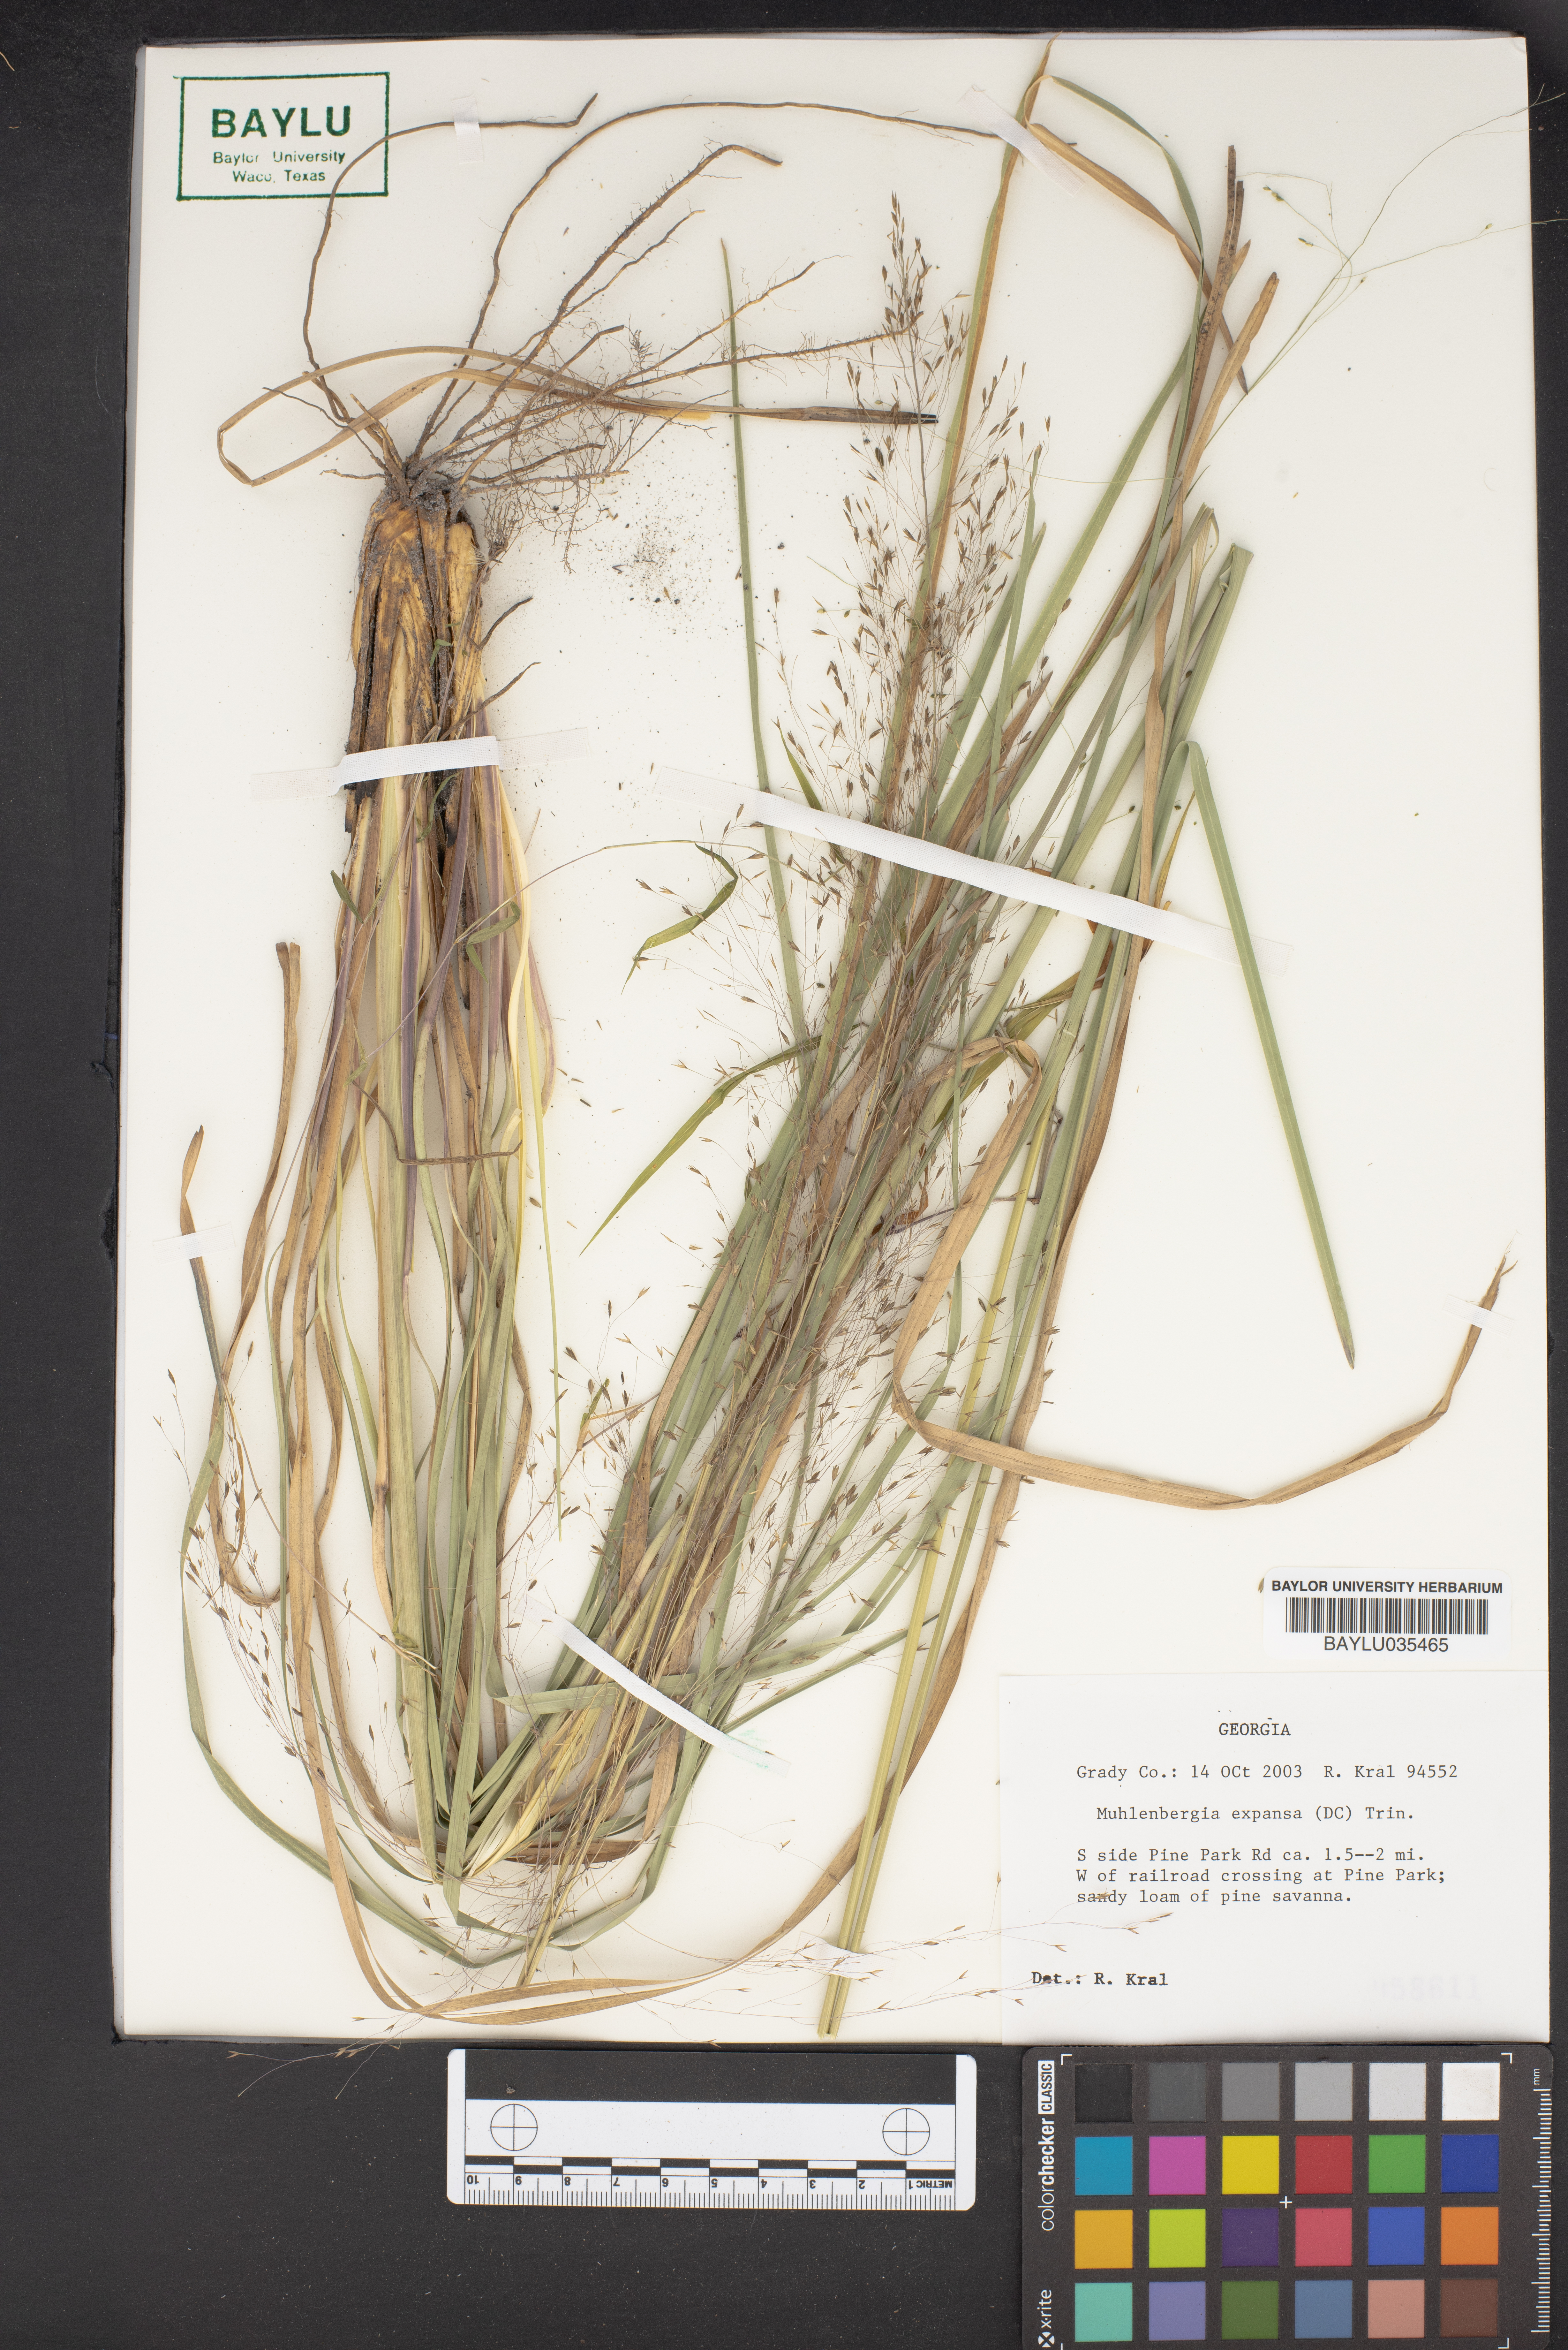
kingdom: Plantae
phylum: Tracheophyta
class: Liliopsida
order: Poales
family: Poaceae
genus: Muhlenbergia
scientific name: Muhlenbergia expansa
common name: Savannah hairgrass
